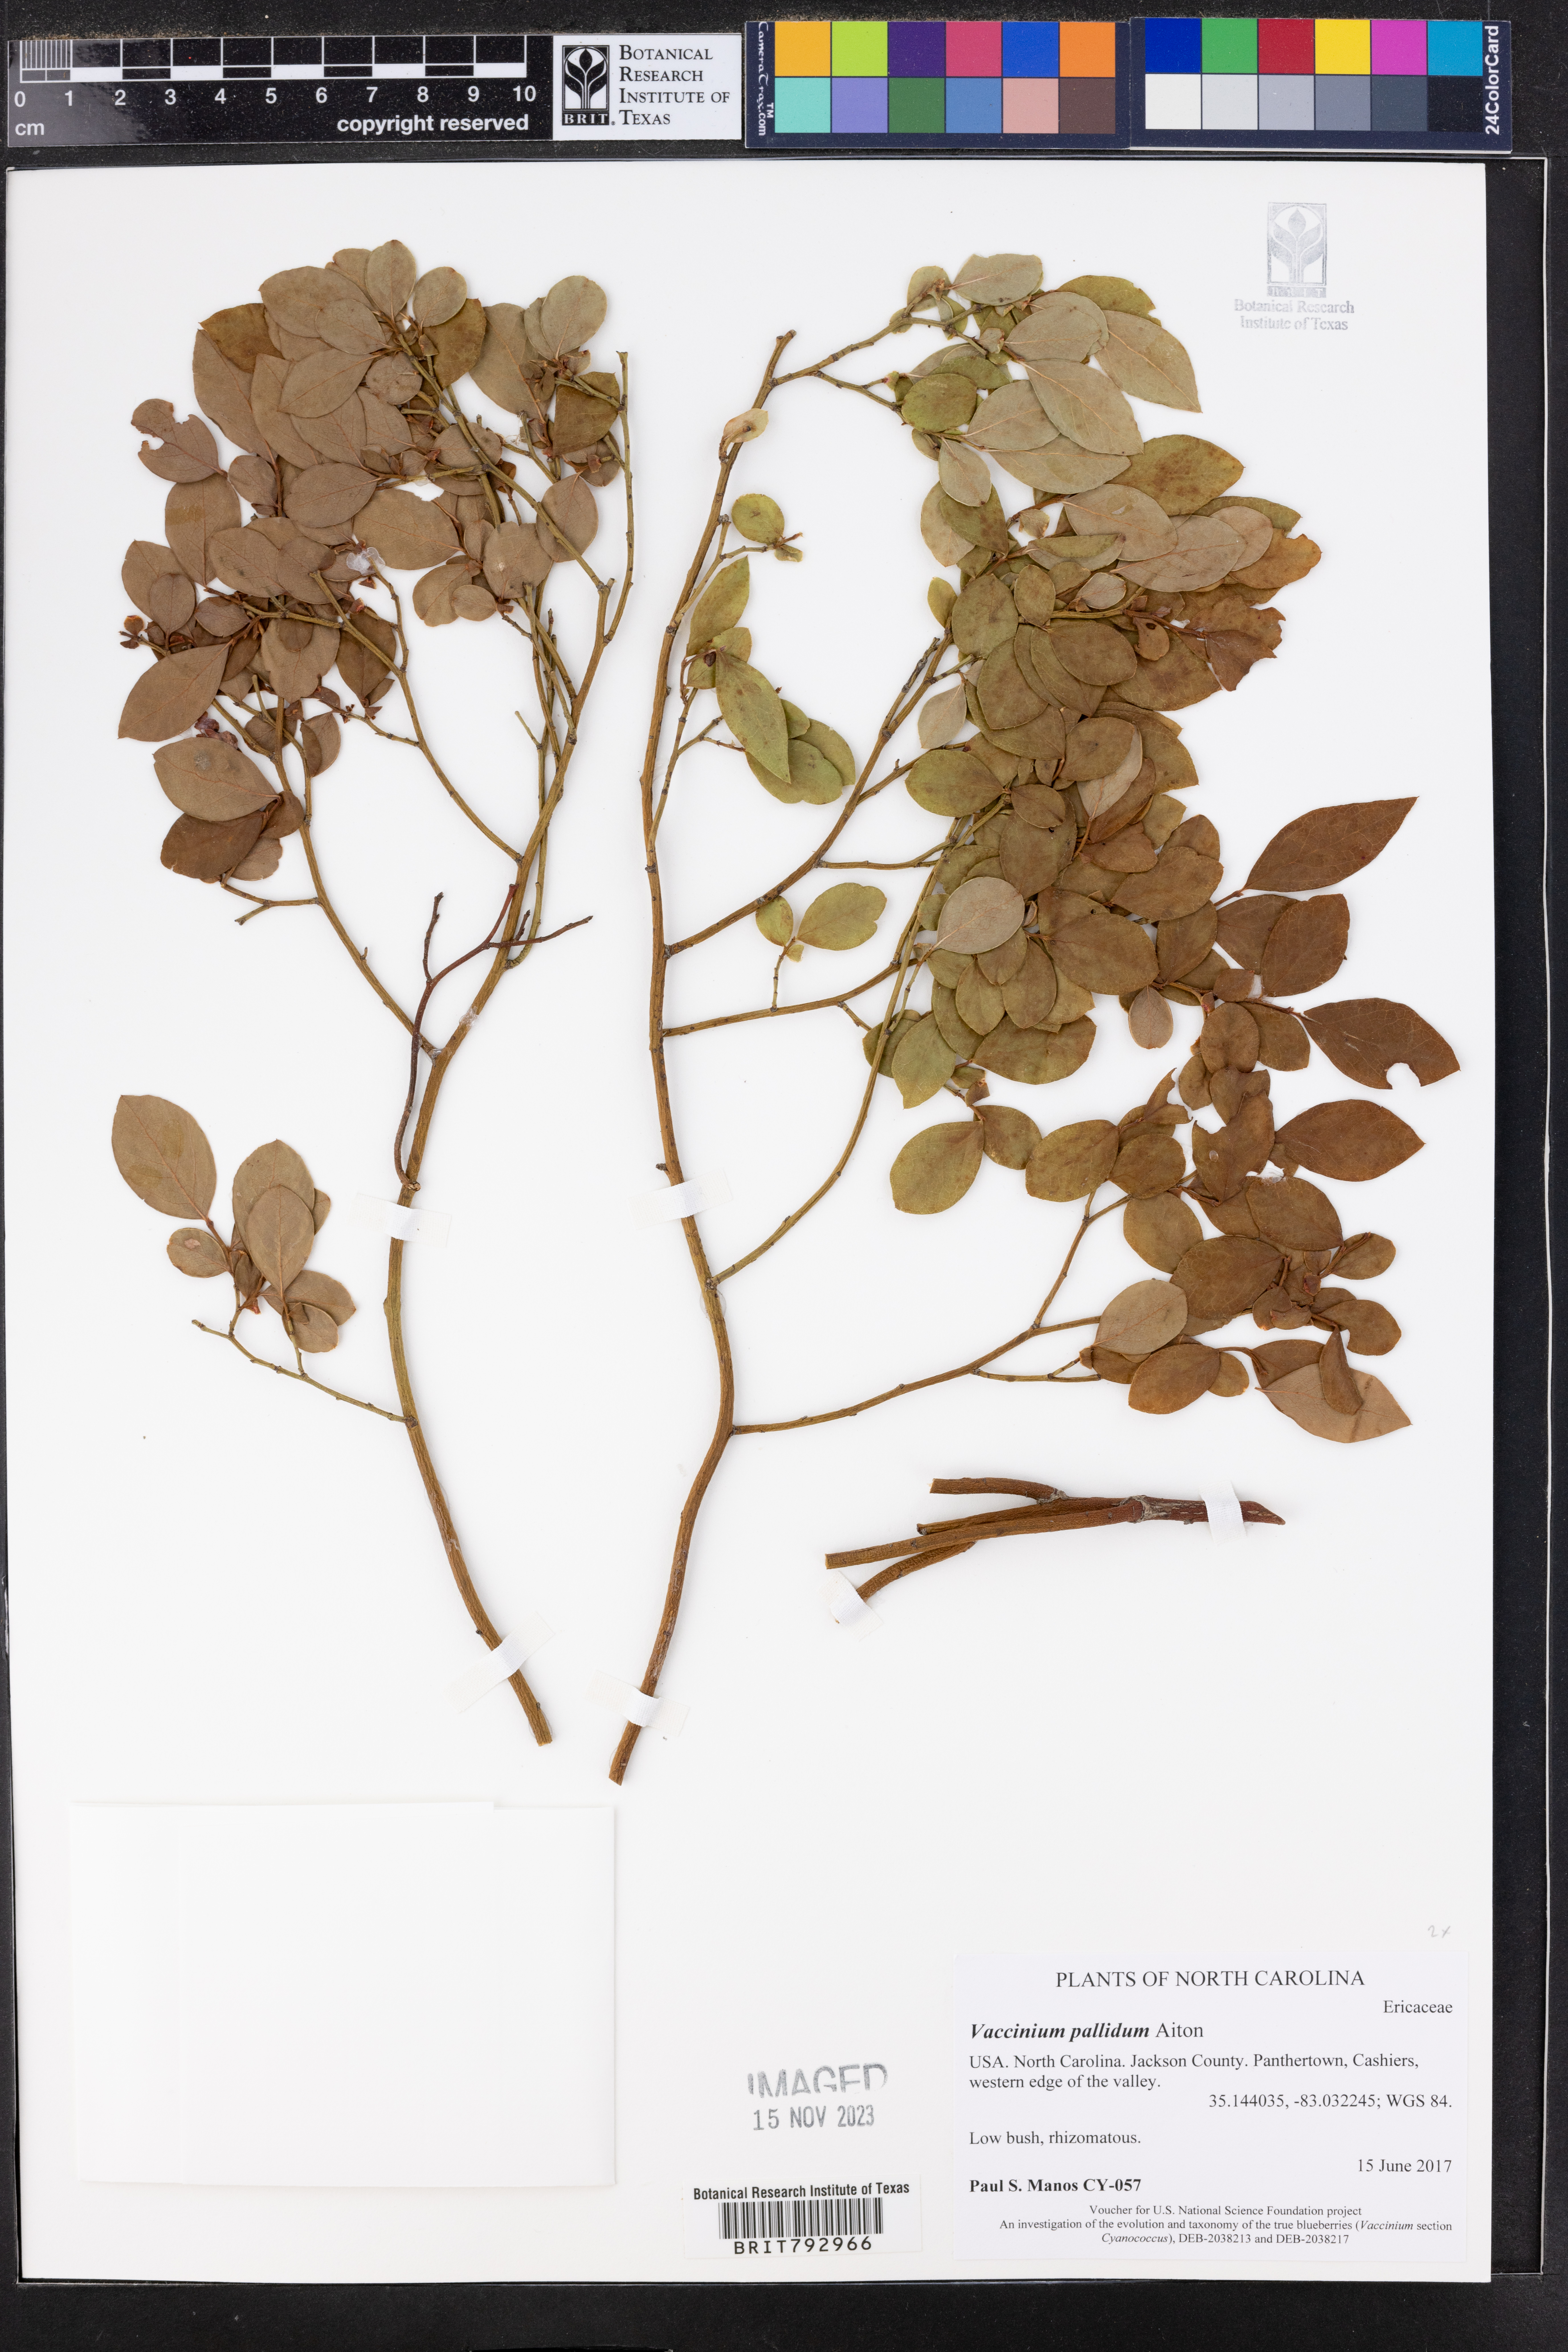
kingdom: Plantae
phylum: Tracheophyta
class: Magnoliopsida
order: Ericales
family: Ericaceae
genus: Vaccinium
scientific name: Vaccinium pallidum
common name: Blue ridge blueberry
